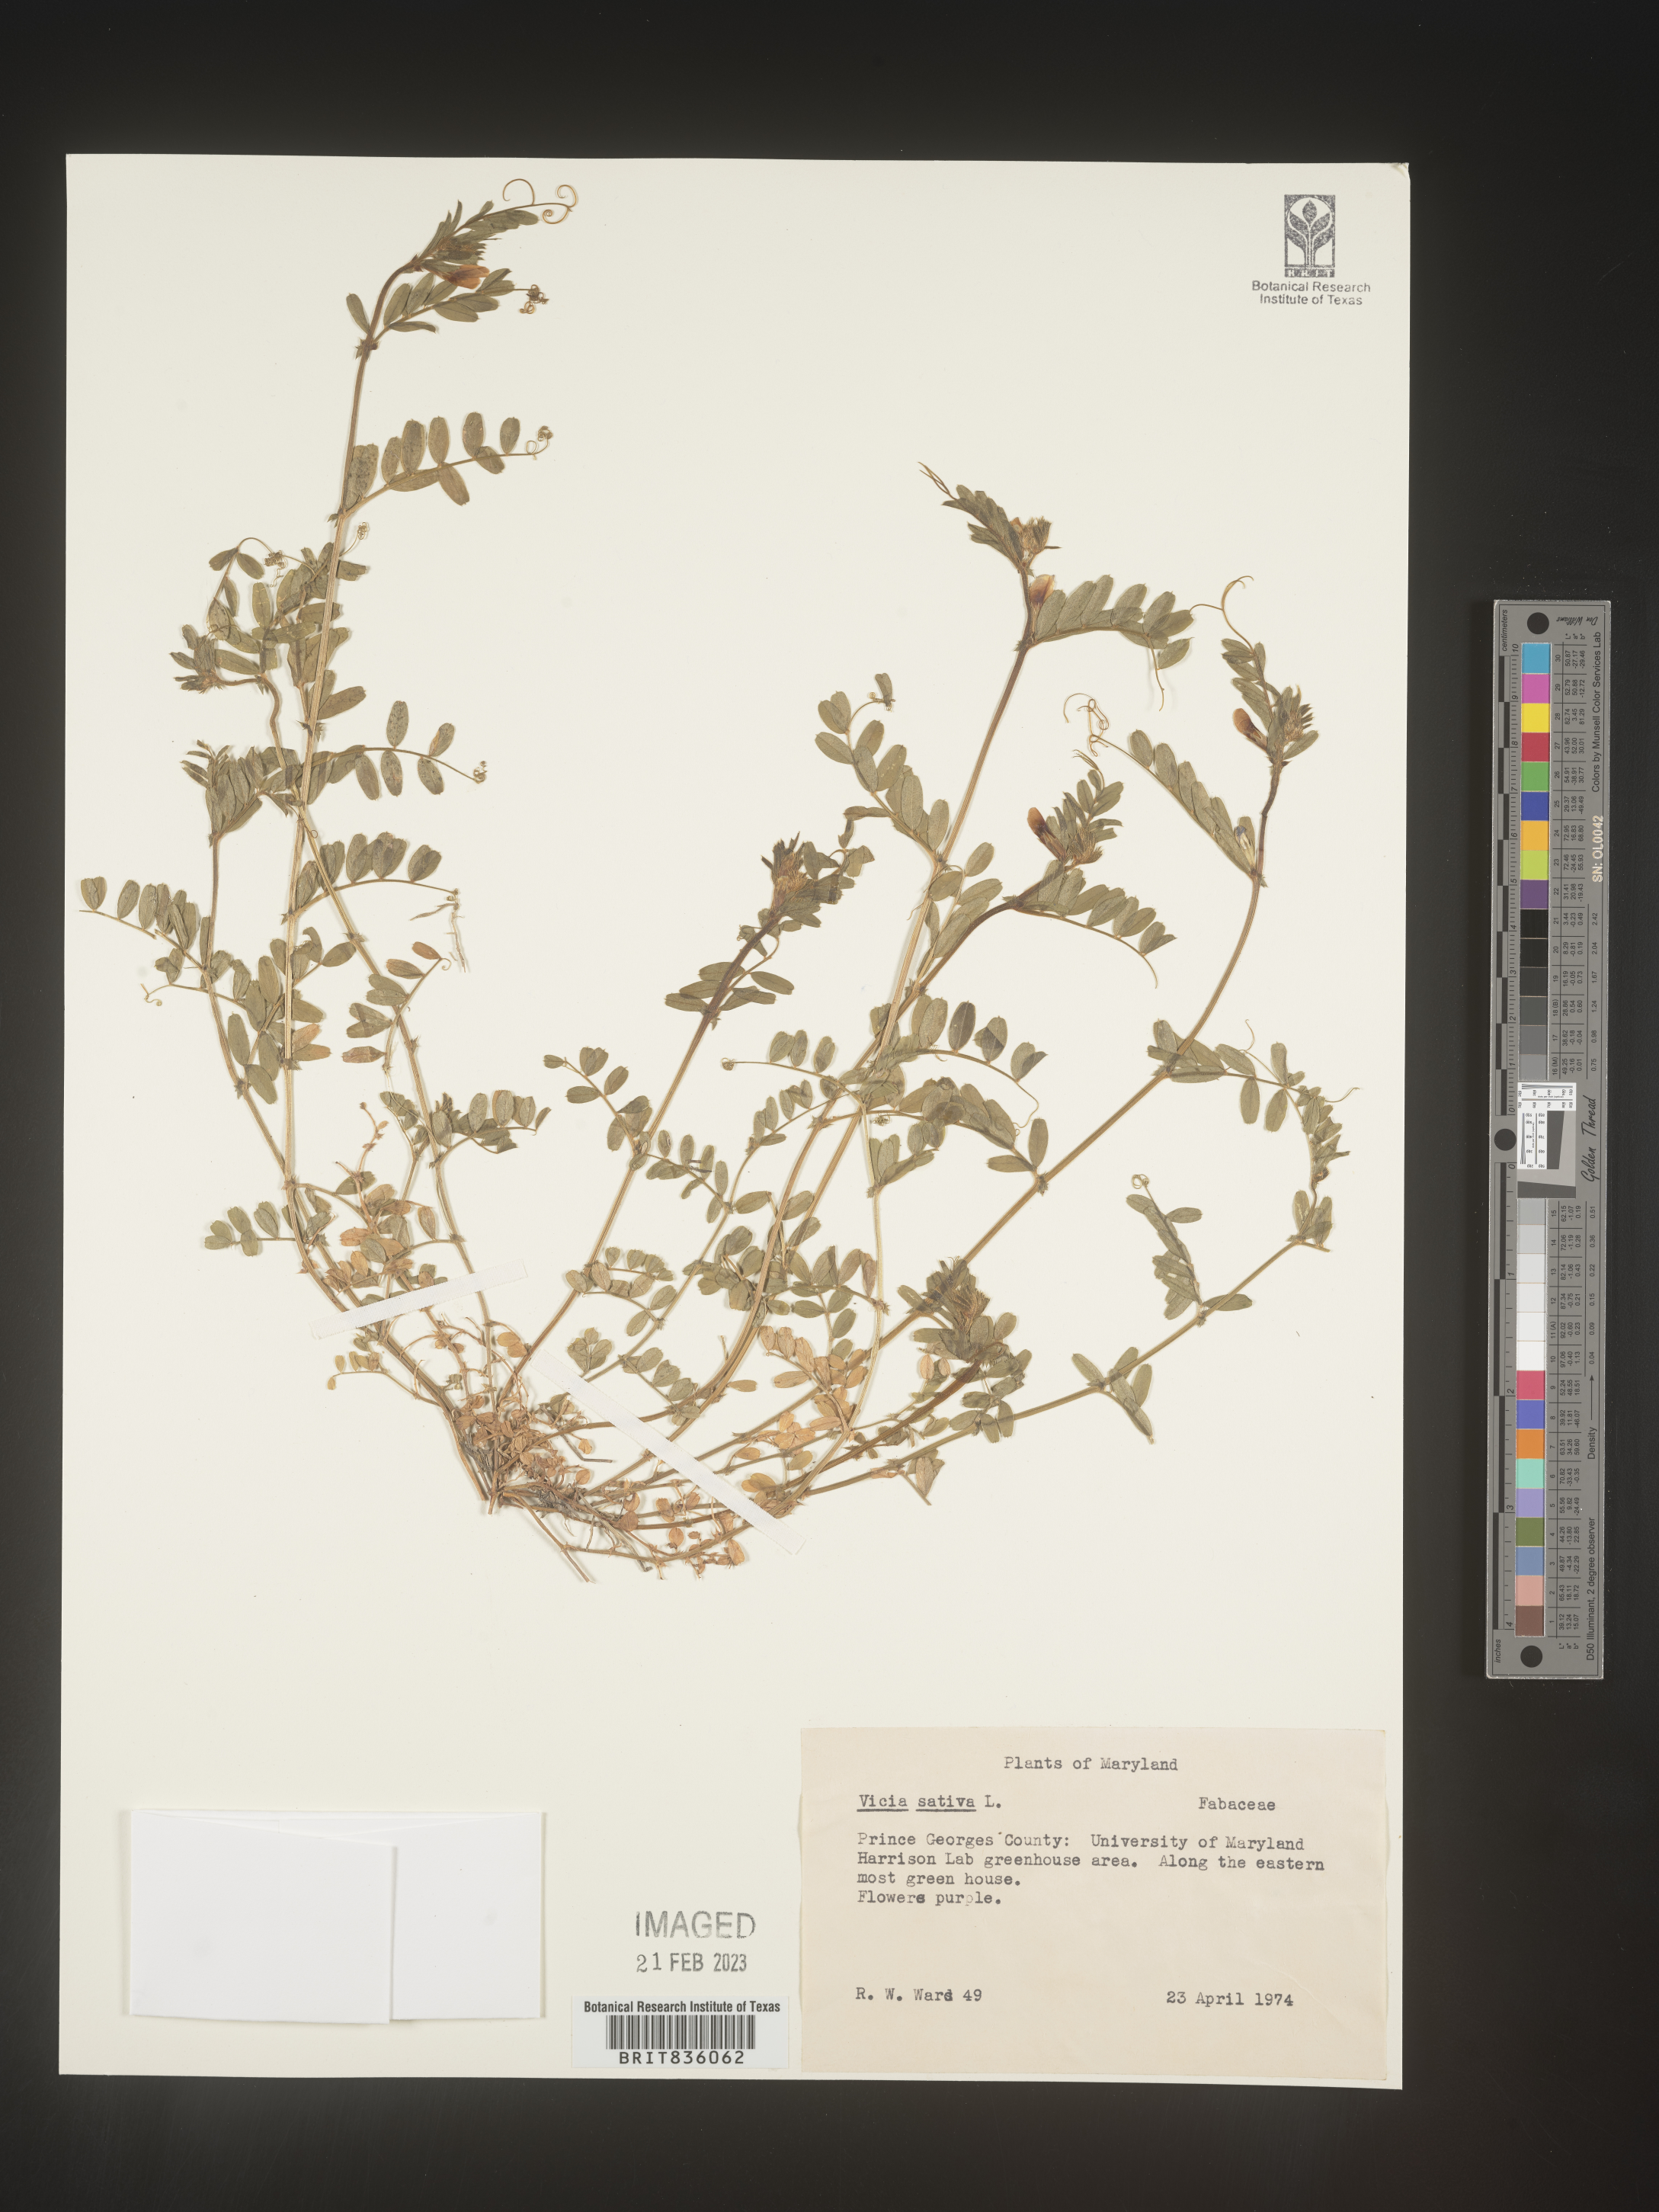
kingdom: Plantae
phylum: Tracheophyta
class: Magnoliopsida
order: Fabales
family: Fabaceae
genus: Vicia
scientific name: Vicia sativa
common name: Garden vetch
